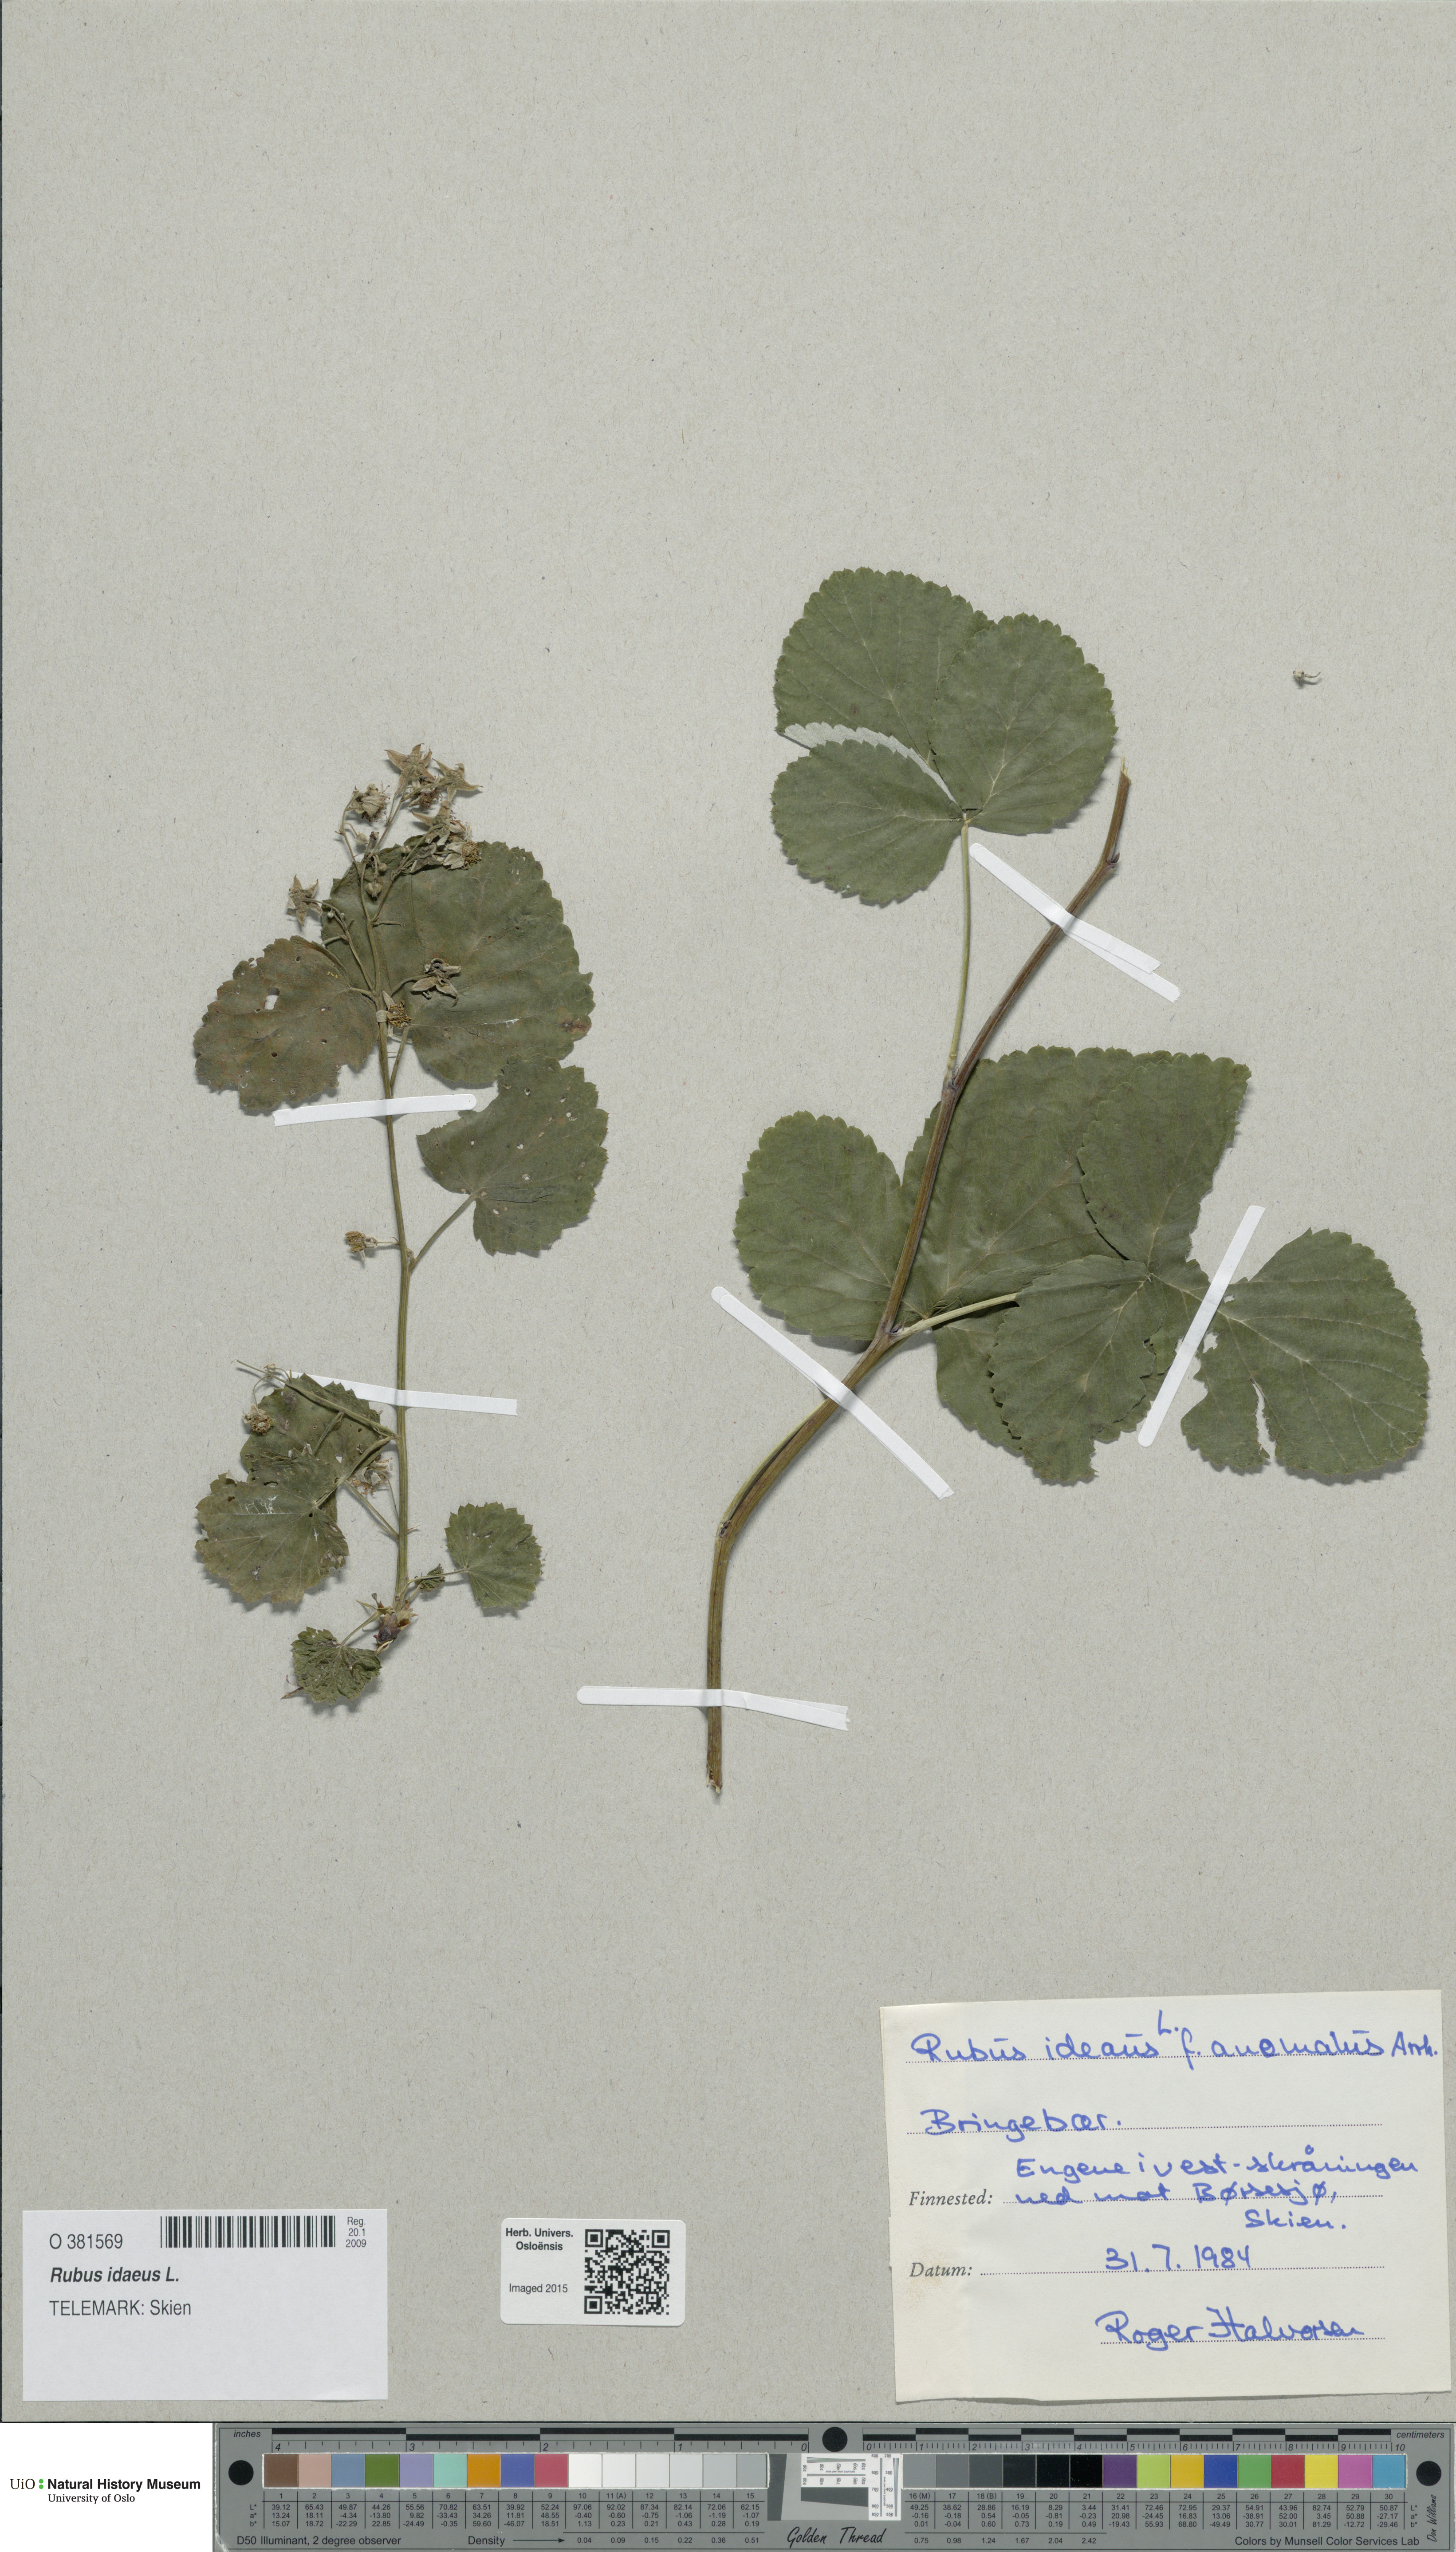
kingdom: Plantae
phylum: Tracheophyta
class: Magnoliopsida
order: Rosales
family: Rosaceae
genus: Rubus
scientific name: Rubus idaeus
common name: Raspberry
